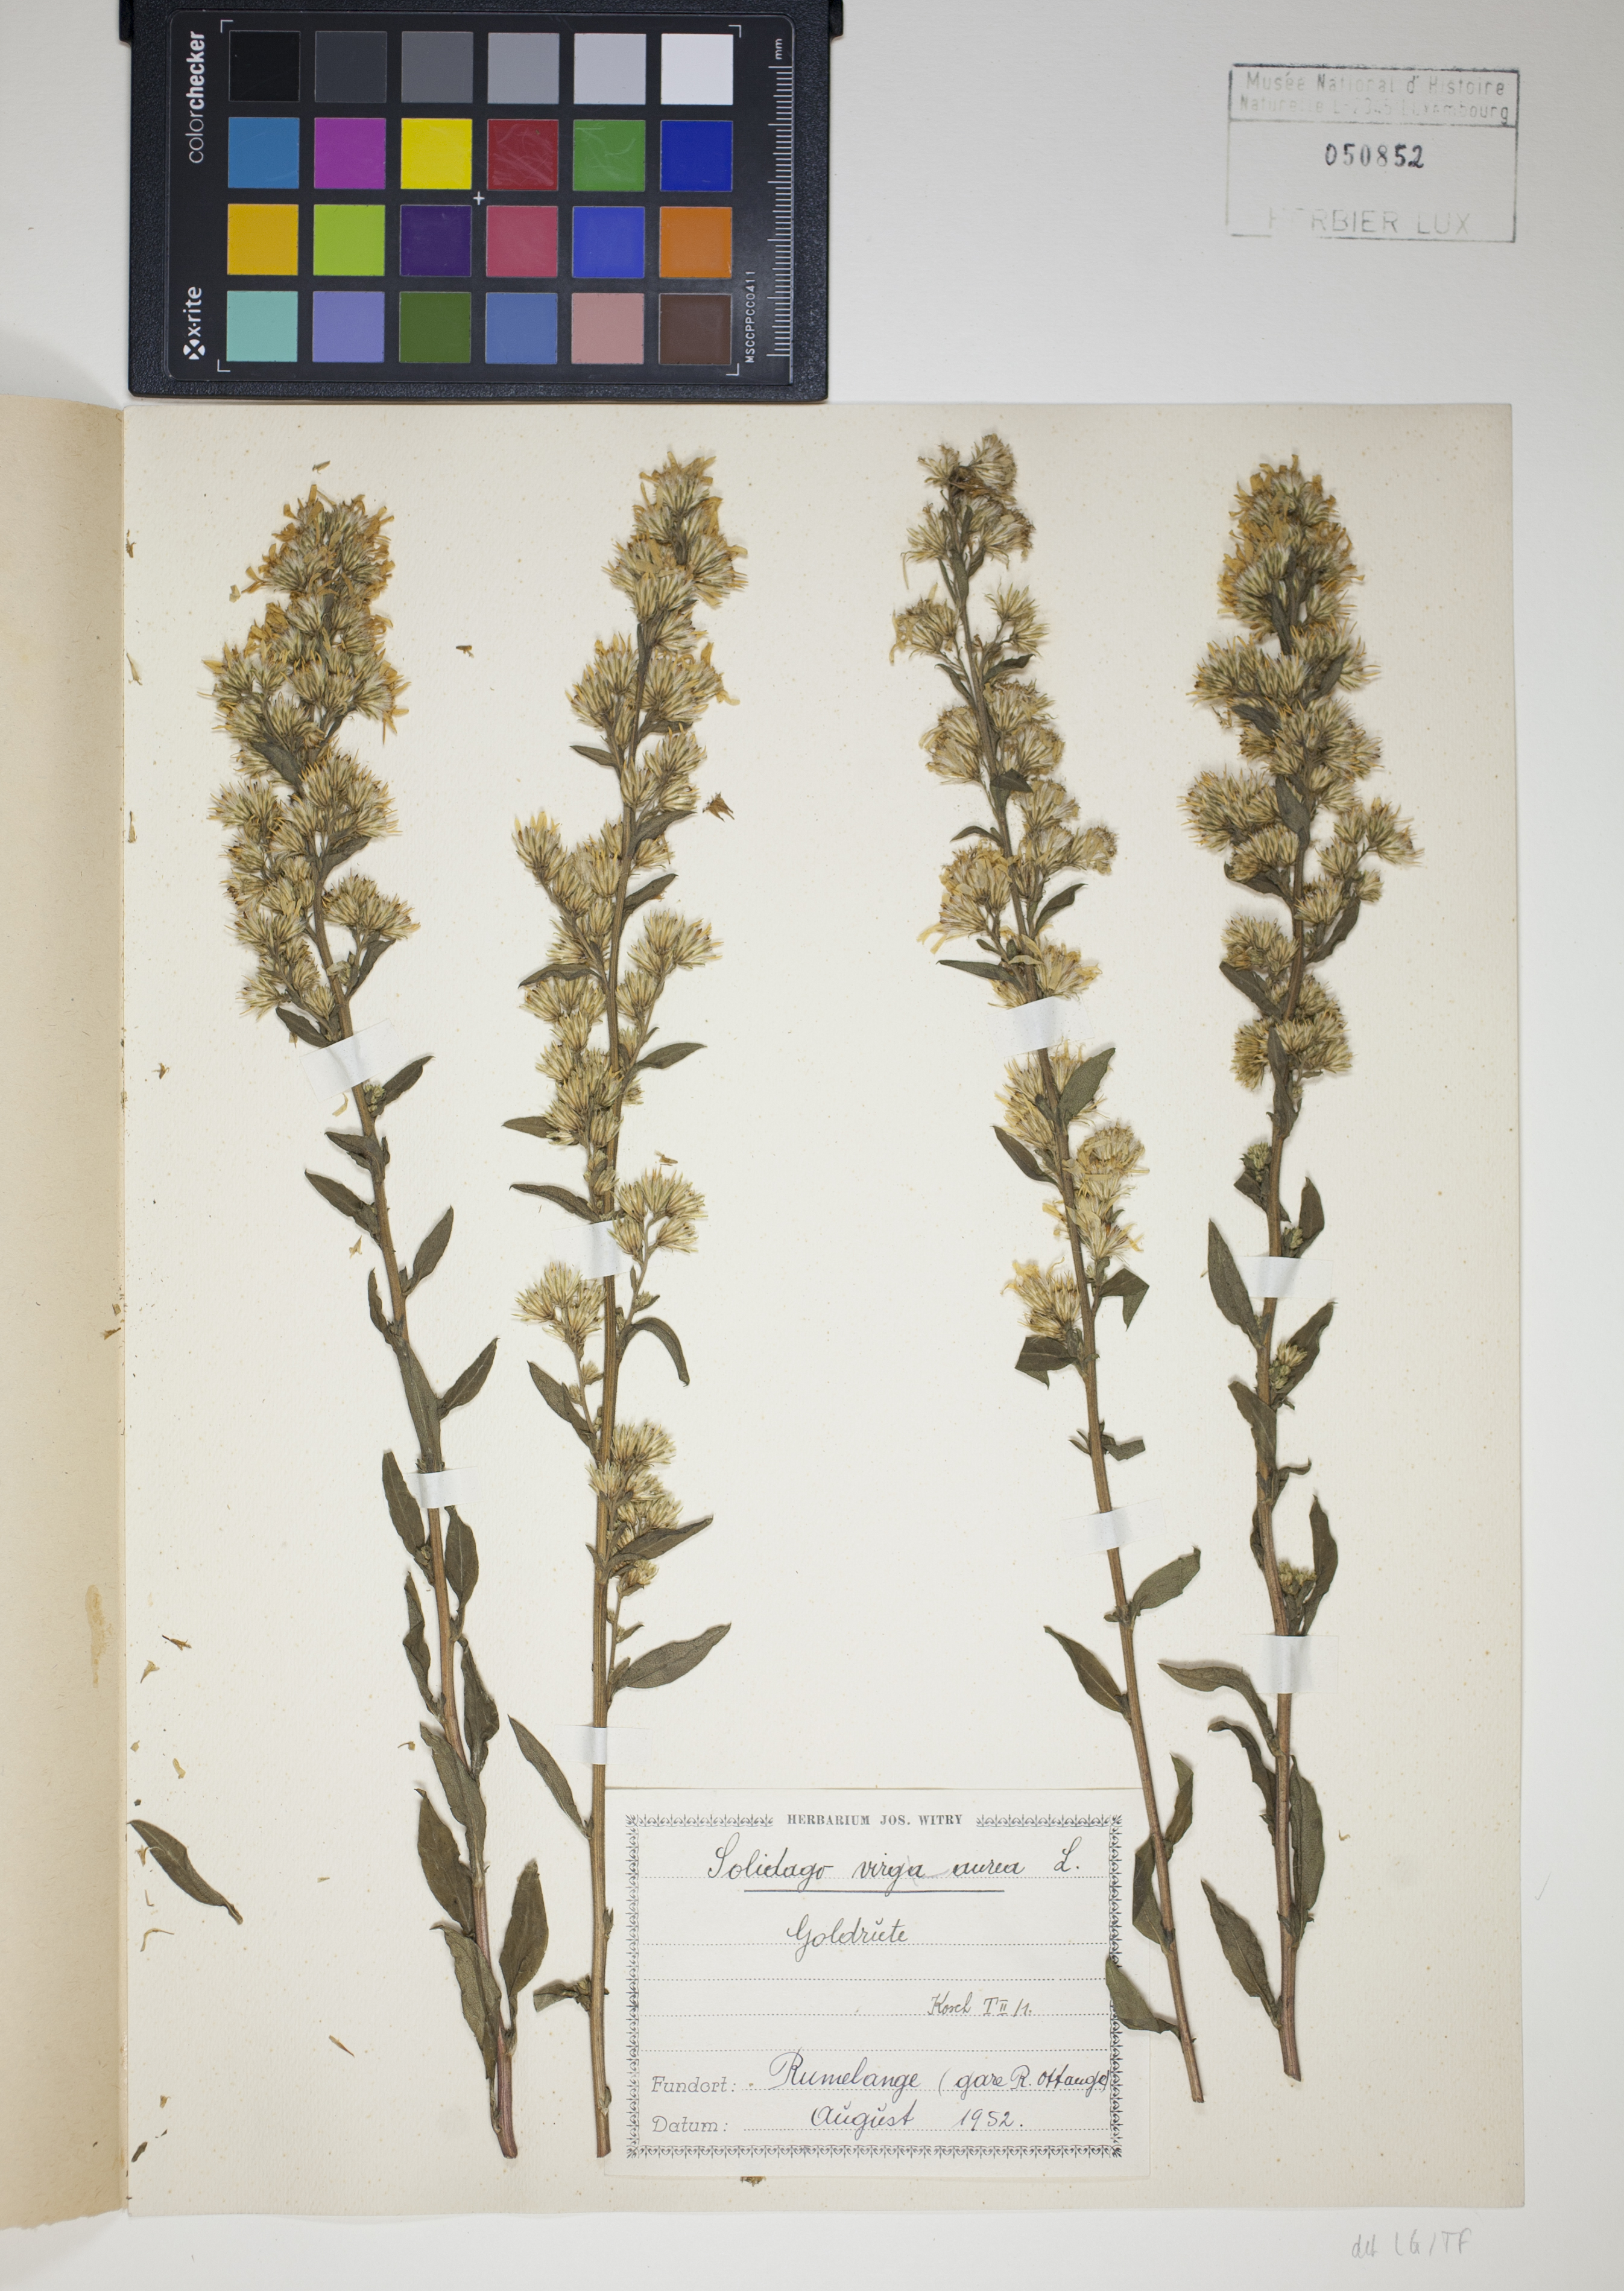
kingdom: Plantae
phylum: Tracheophyta
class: Magnoliopsida
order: Asterales
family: Asteraceae
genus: Solidago
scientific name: Solidago virgaurea
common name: Goldenrod
